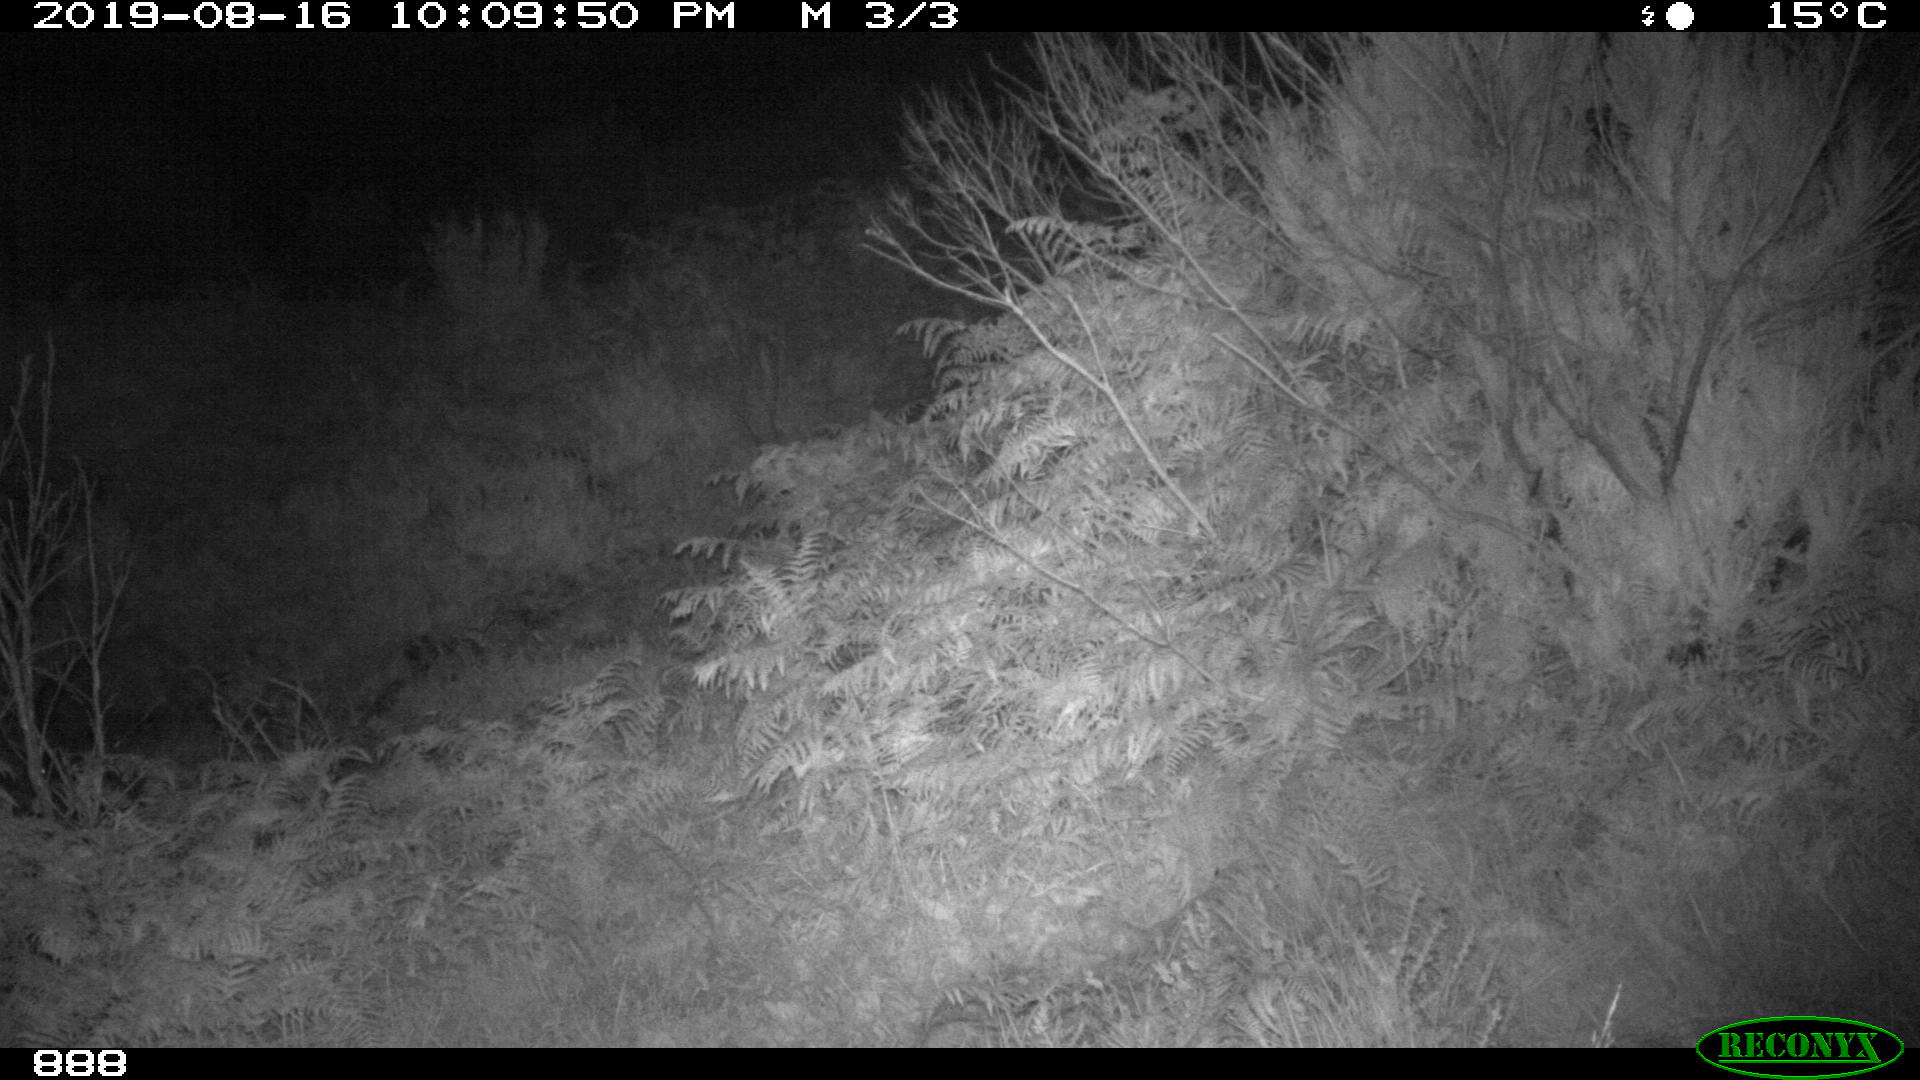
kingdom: Animalia
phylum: Chordata
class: Mammalia
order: Artiodactyla
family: Suidae
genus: Sus
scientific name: Sus scrofa
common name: Wild boar
